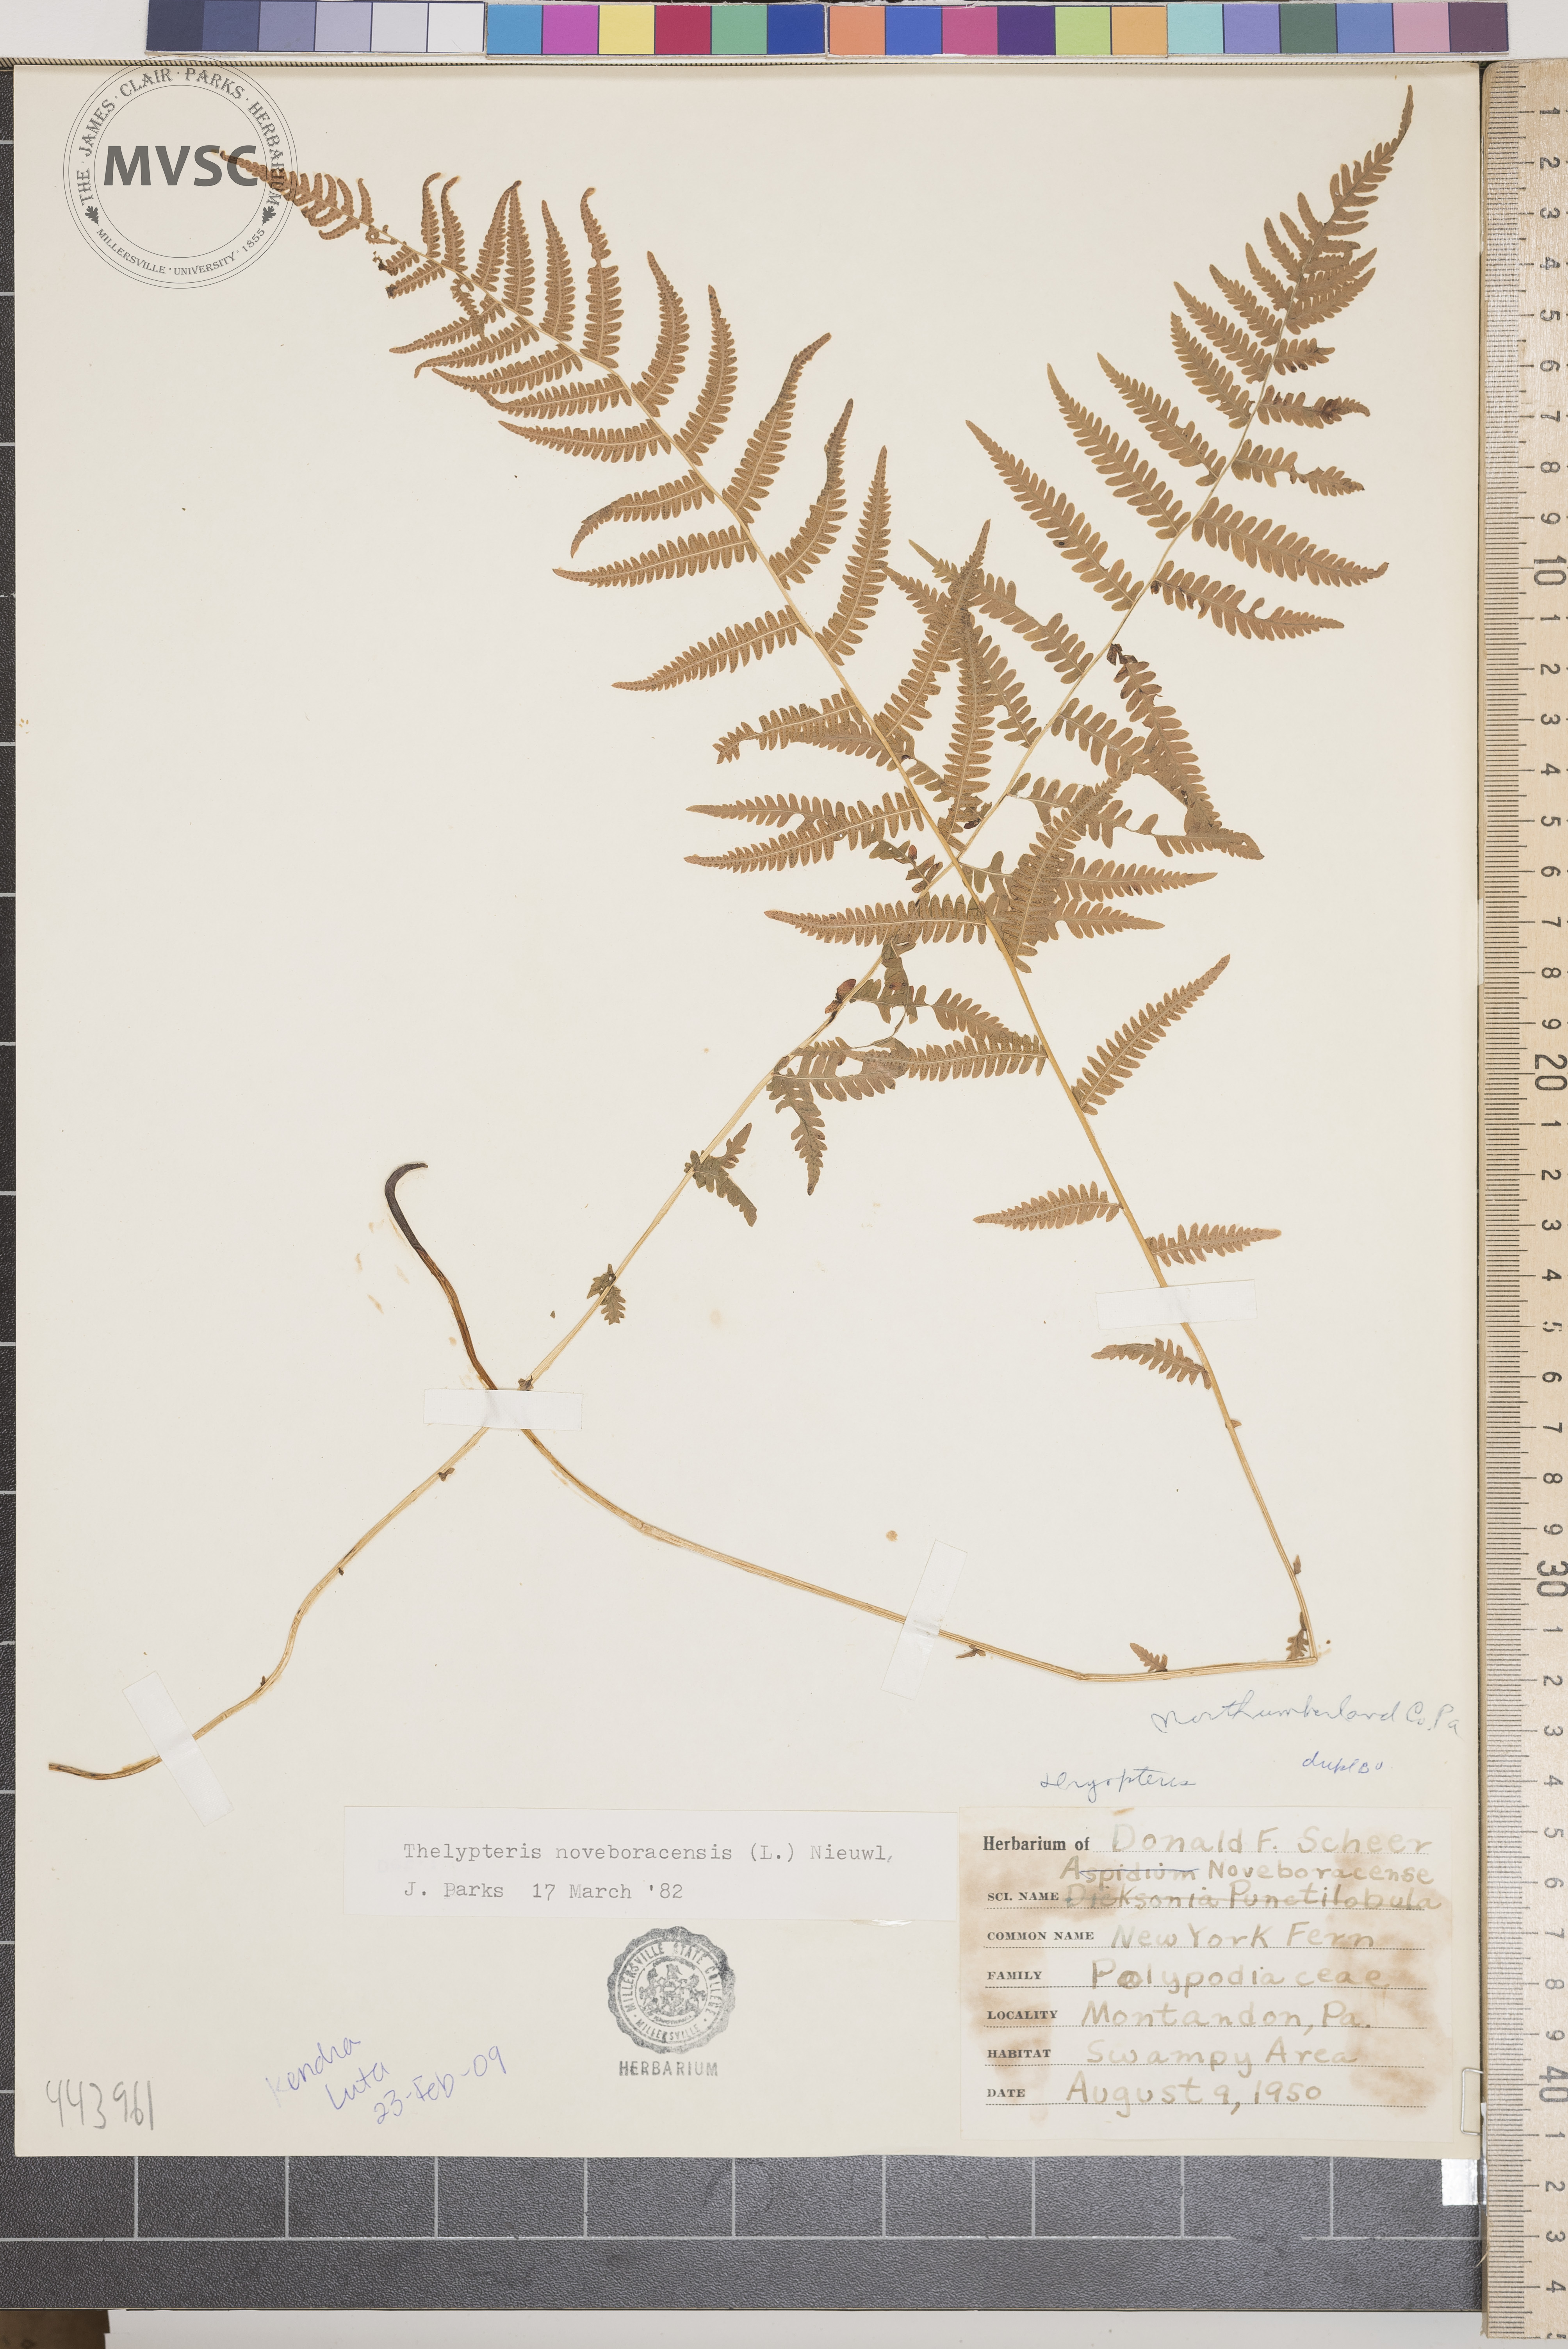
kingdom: Plantae
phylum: Tracheophyta
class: Polypodiopsida
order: Polypodiales
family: Thelypteridaceae
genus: Amauropelta
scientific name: Amauropelta noveboracensis
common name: New york fern
